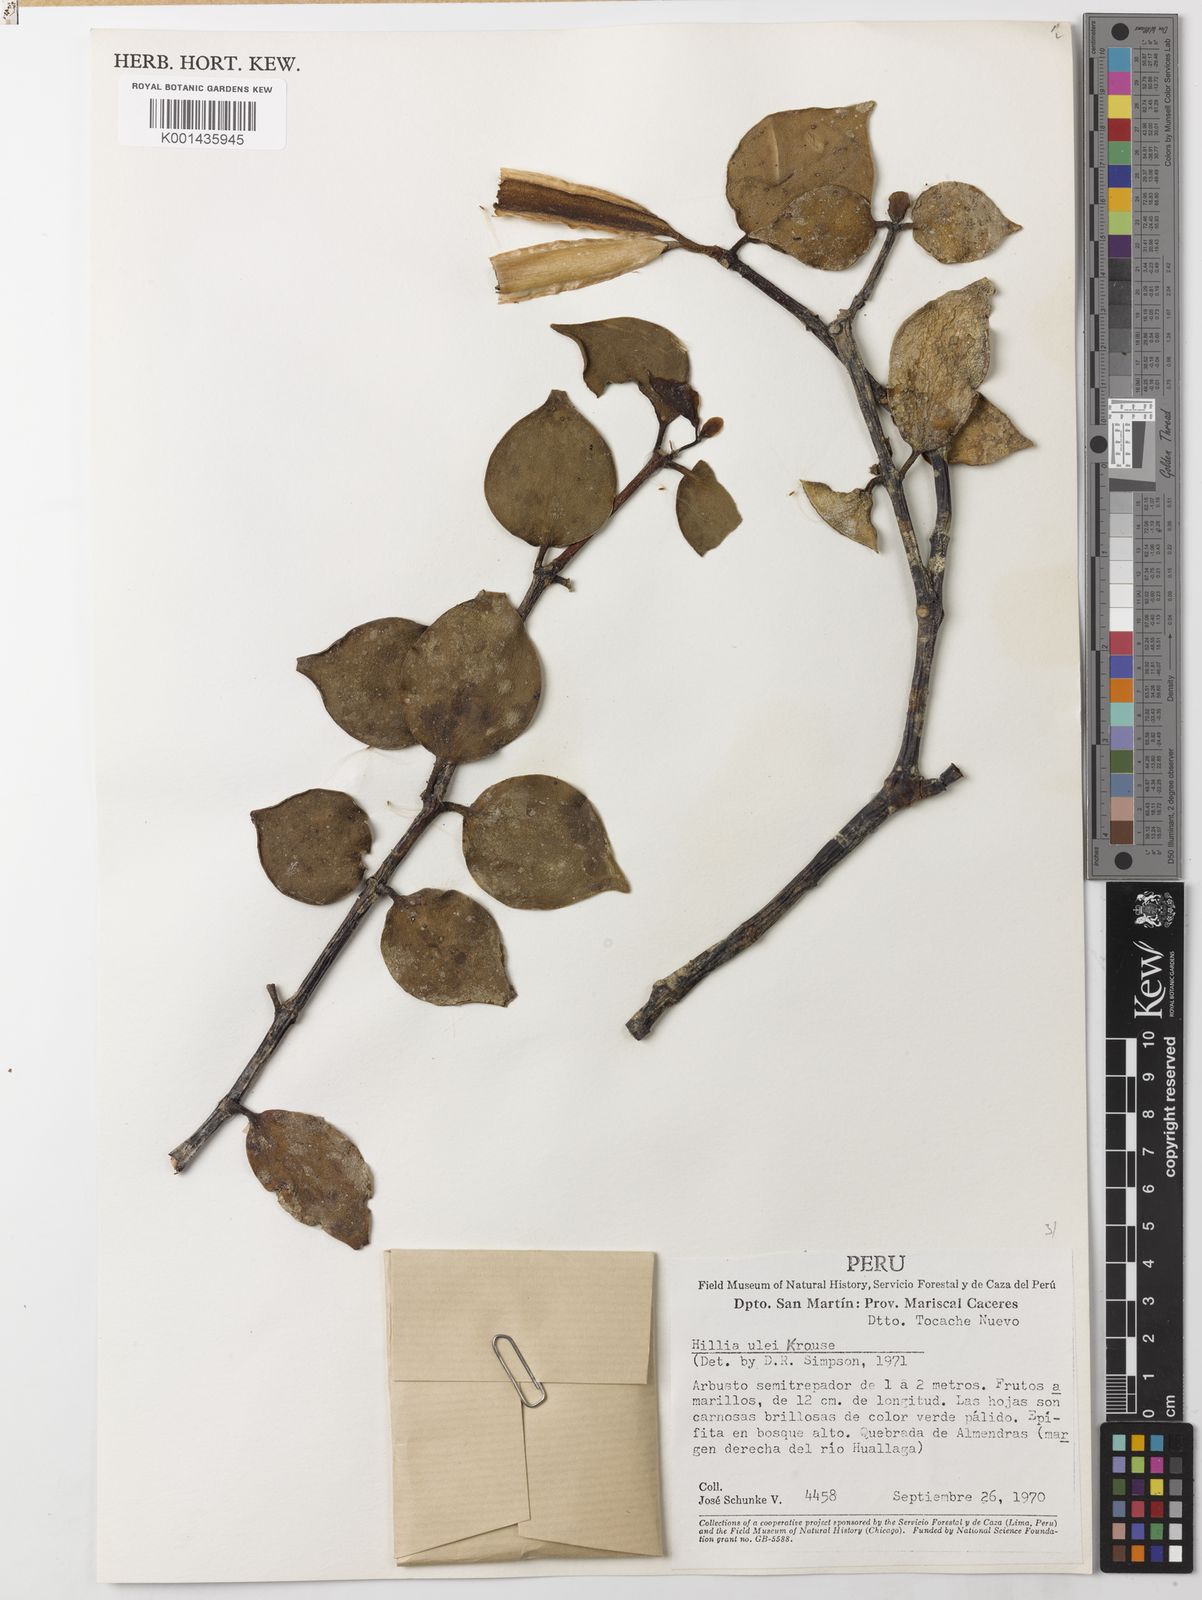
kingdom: Plantae
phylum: Tracheophyta
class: Magnoliopsida
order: Gentianales
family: Rubiaceae
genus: Hillia
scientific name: Hillia
